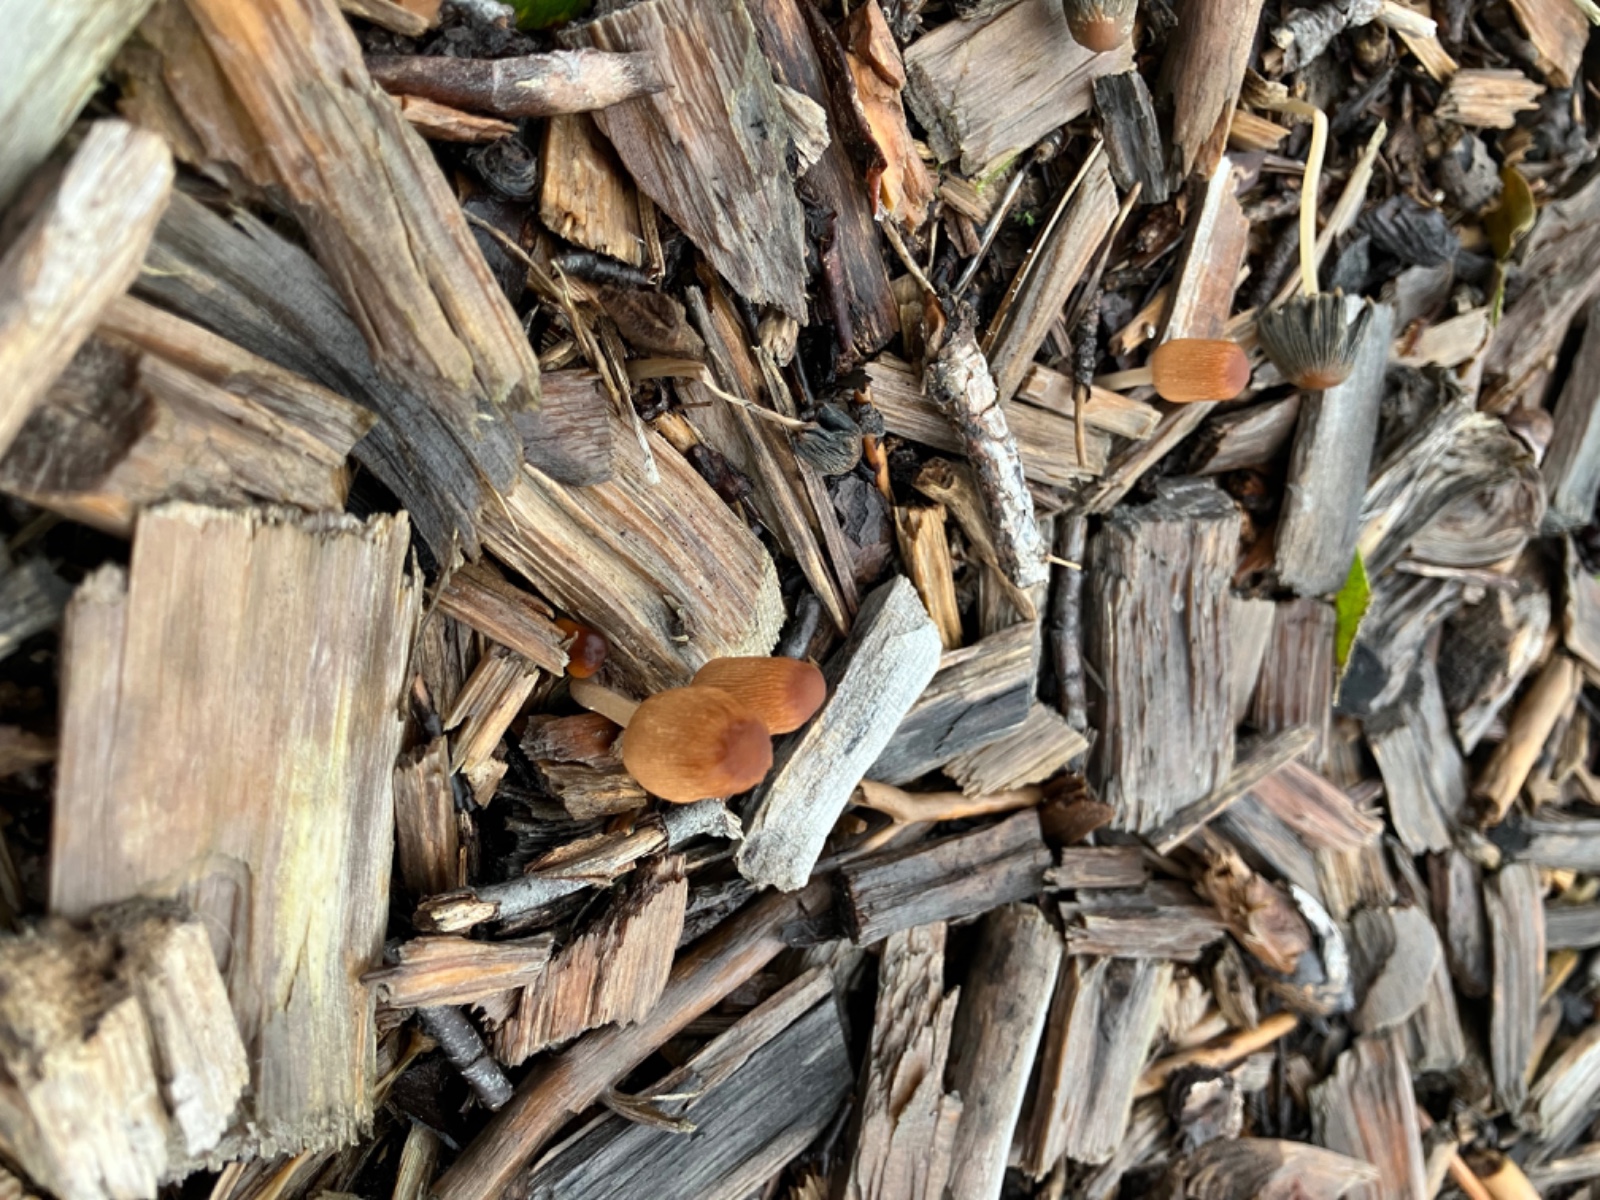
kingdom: Fungi
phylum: Basidiomycota
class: Agaricomycetes
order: Agaricales
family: Psathyrellaceae
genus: Parasola
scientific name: Parasola
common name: hjulhat
